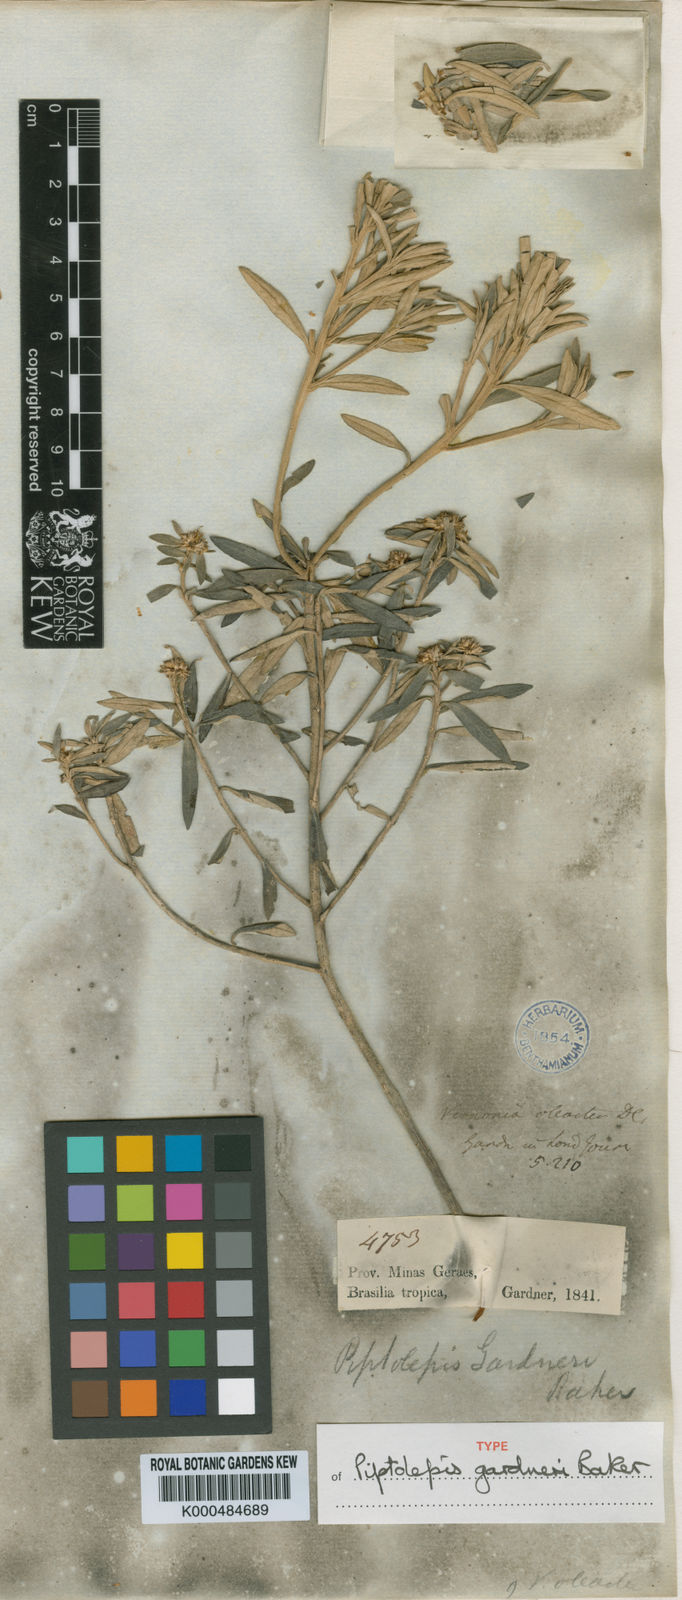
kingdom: Plantae
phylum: Tracheophyta
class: Magnoliopsida
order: Asterales
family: Asteraceae
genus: Piptolepis
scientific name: Piptolepis gardneri
